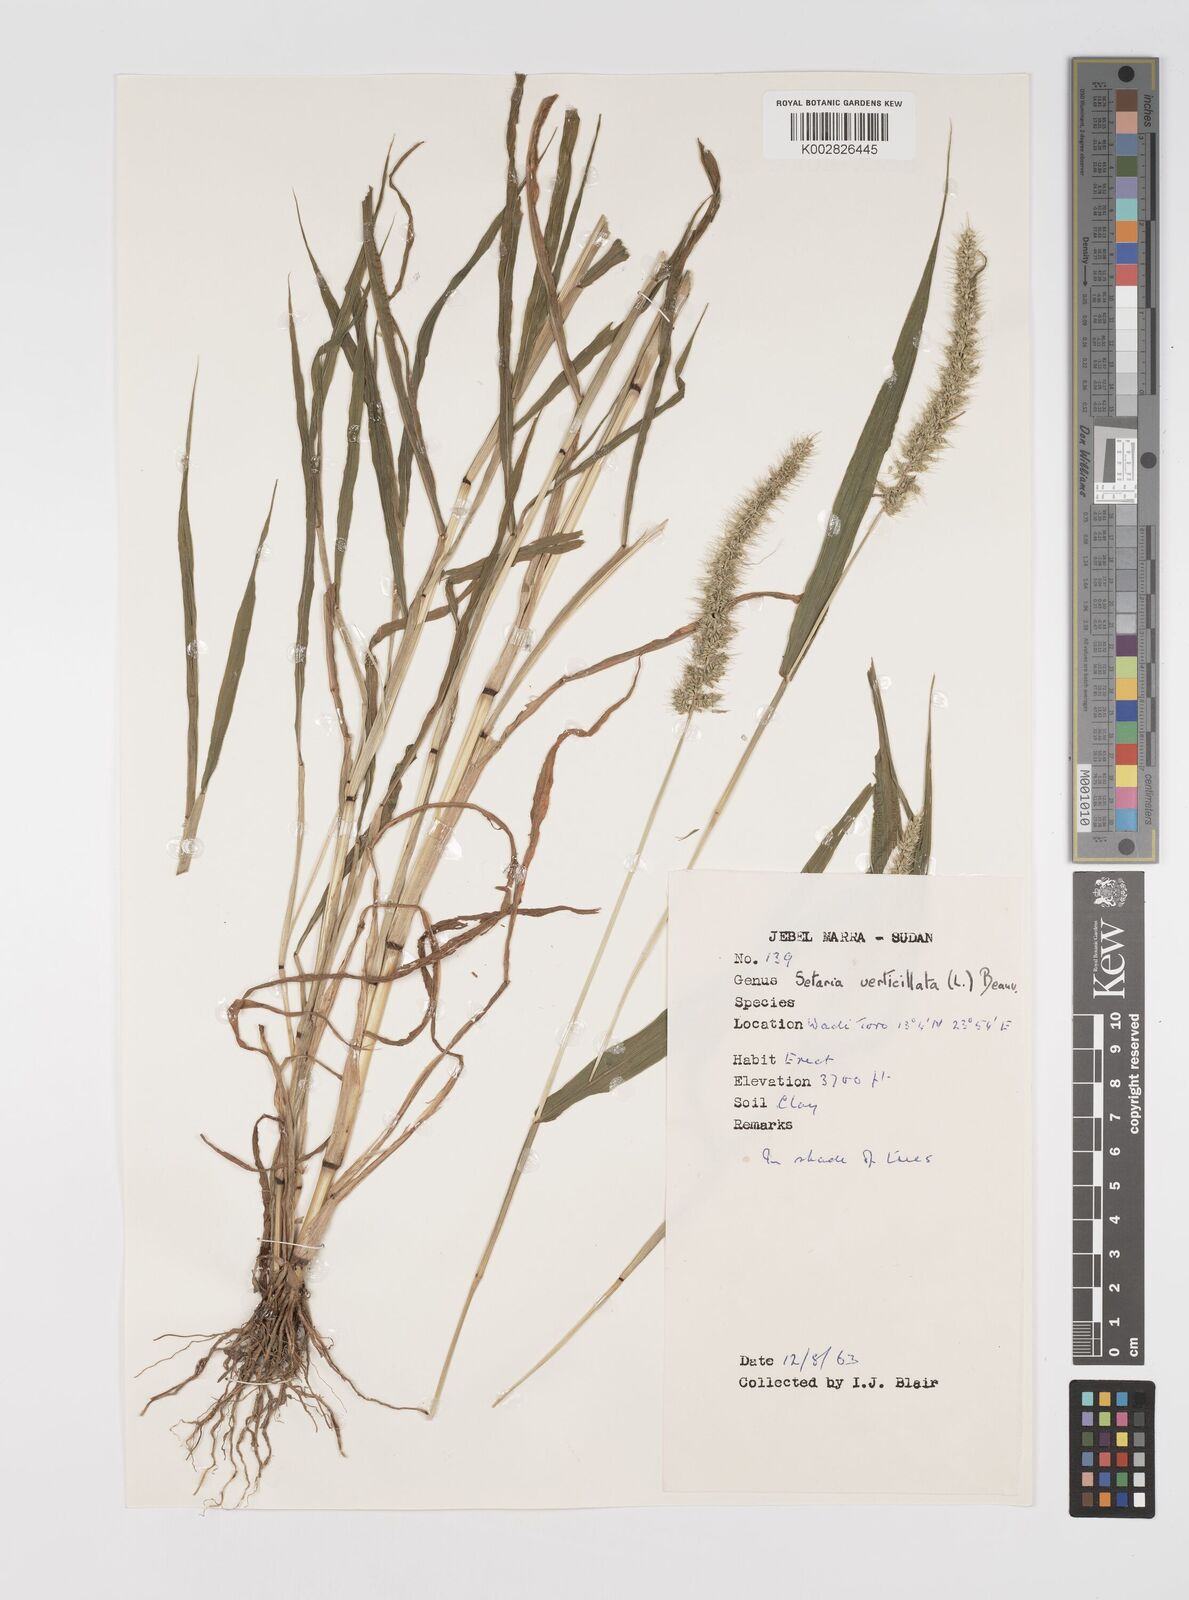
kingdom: Plantae
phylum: Tracheophyta
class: Liliopsida
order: Poales
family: Poaceae
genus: Setaria
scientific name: Setaria verticillata
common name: Hooked bristlegrass
